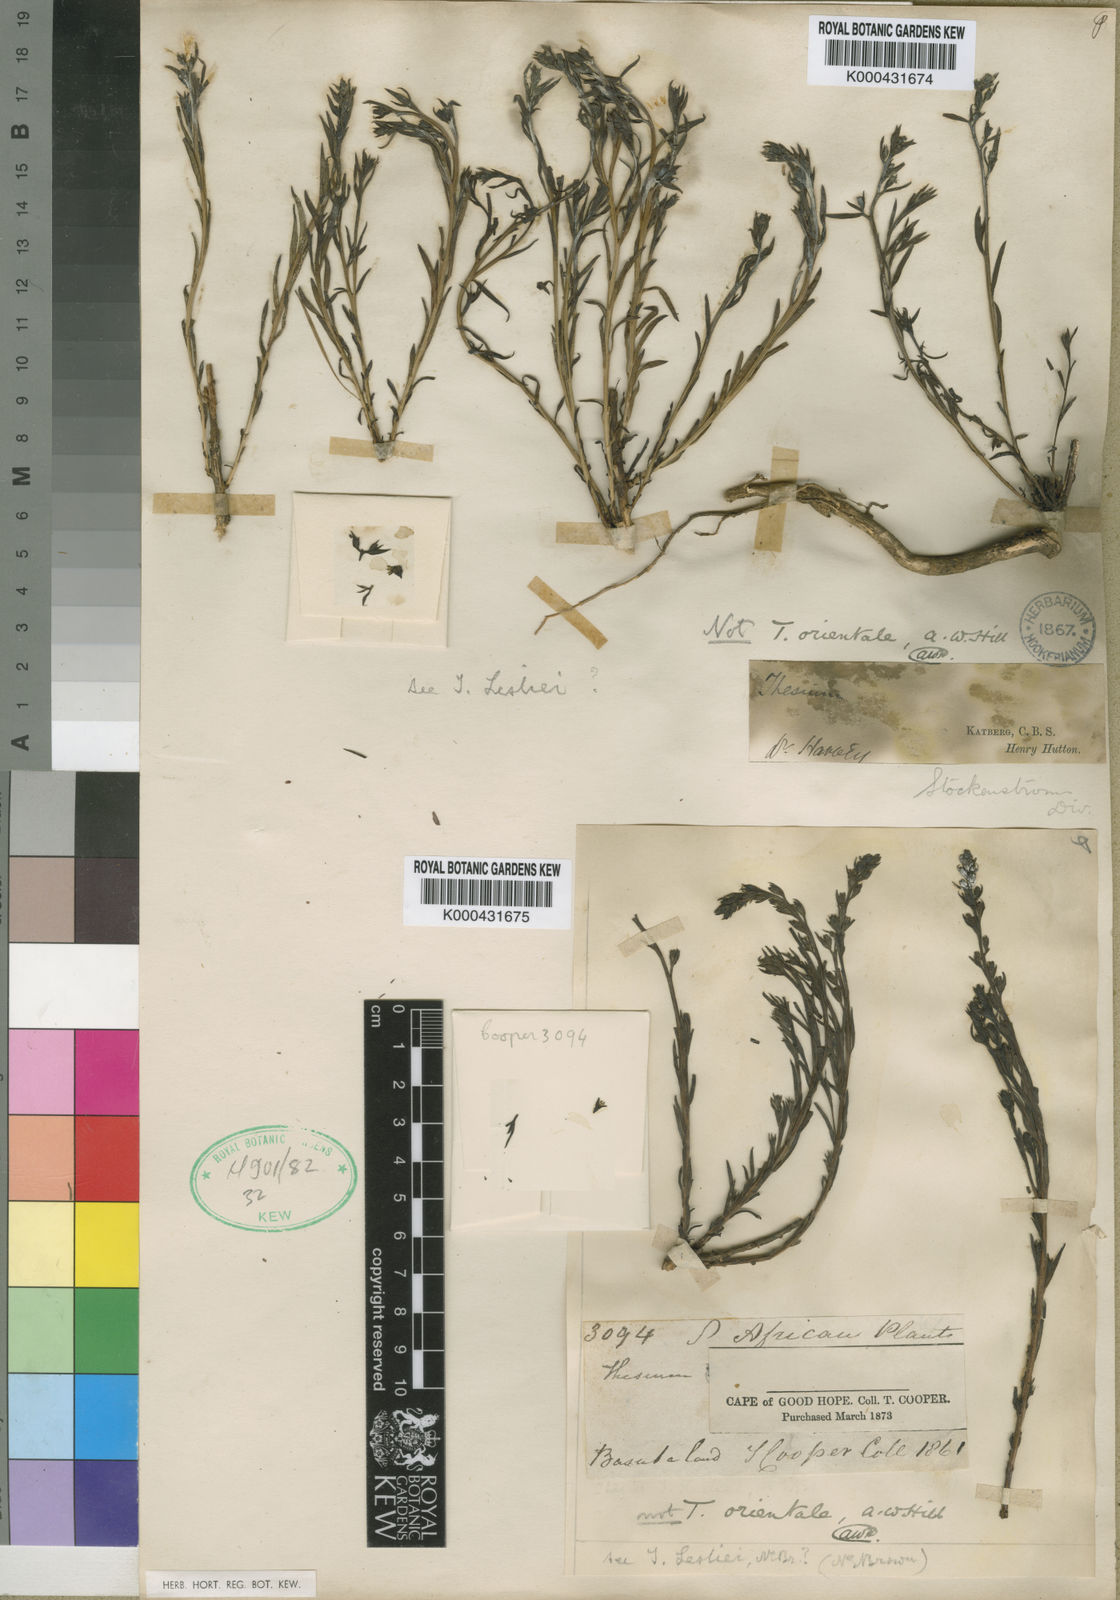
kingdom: Plantae
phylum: Tracheophyta
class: Magnoliopsida
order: Santalales
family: Thesiaceae
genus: Thesium
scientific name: Thesium orientale
